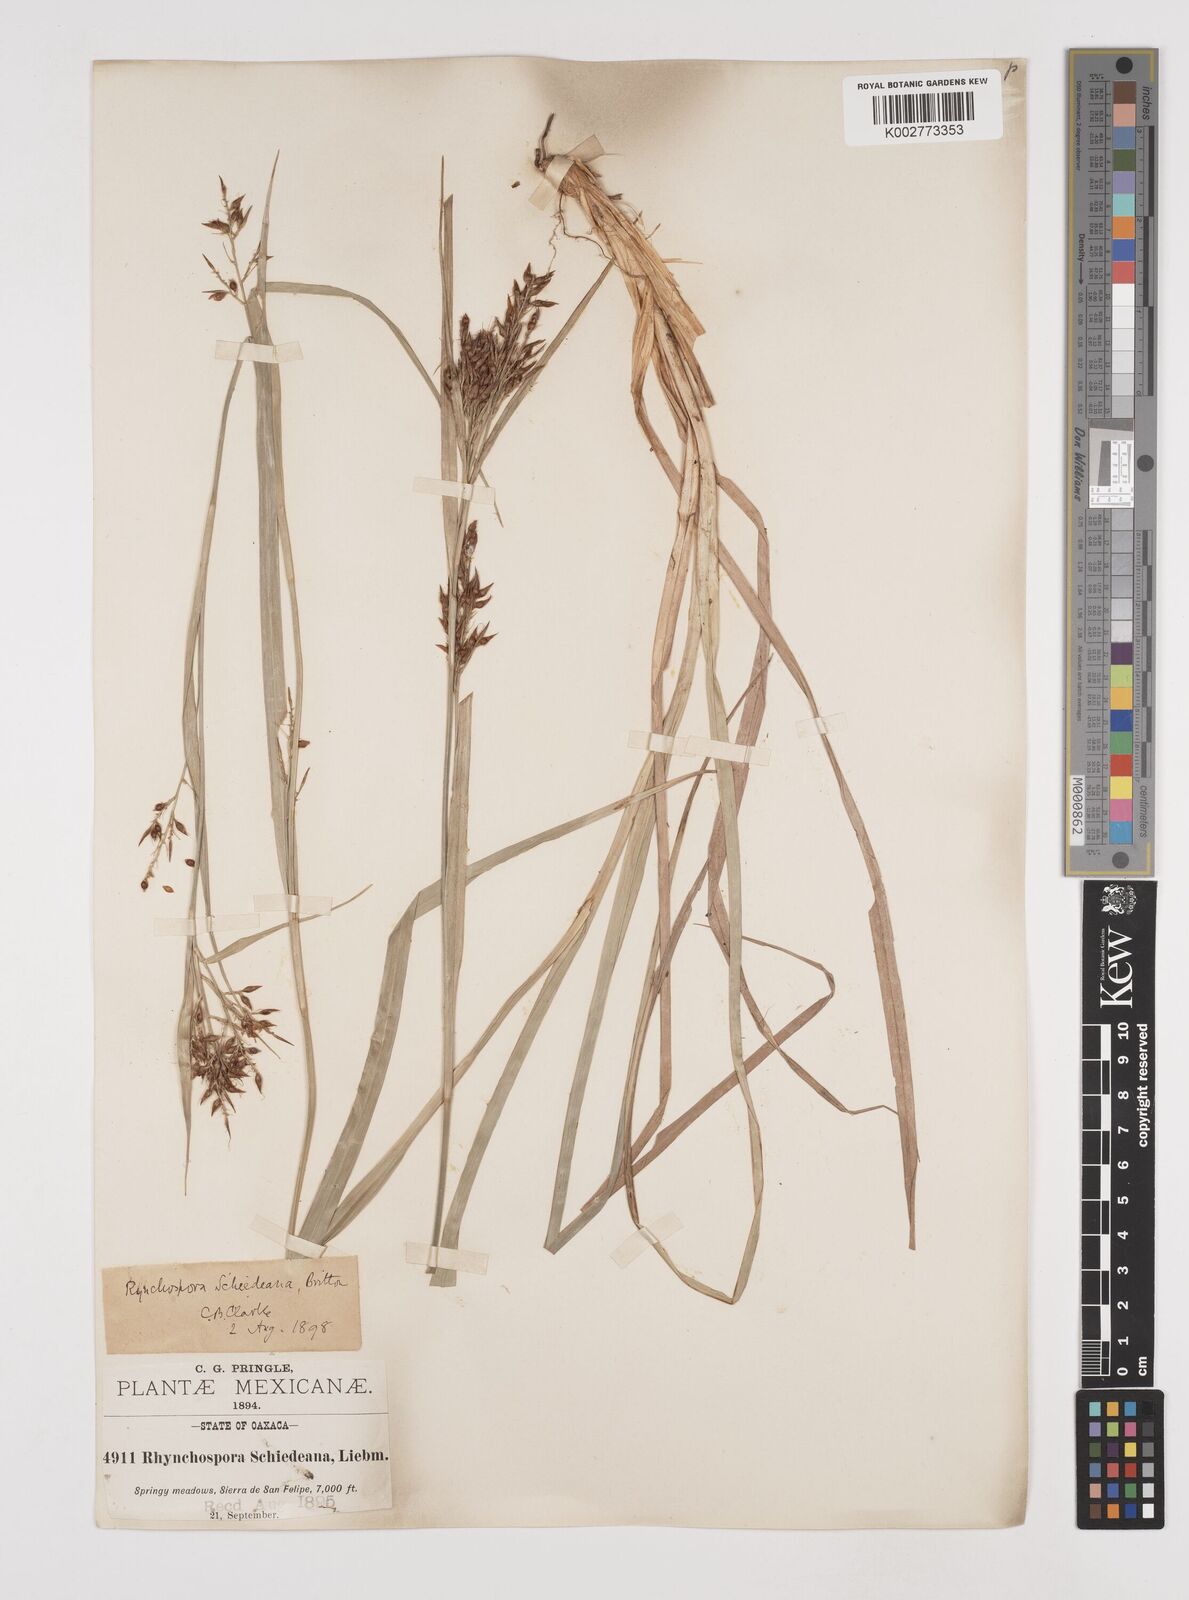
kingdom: Plantae
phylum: Tracheophyta
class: Liliopsida
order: Poales
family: Cyperaceae
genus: Rhynchospora
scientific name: Rhynchospora schiedeana
